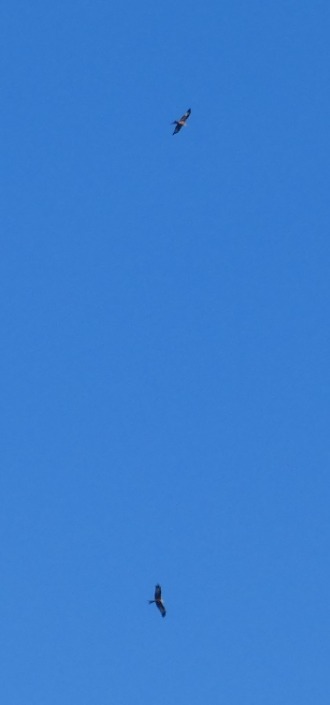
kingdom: Animalia
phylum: Chordata
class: Aves
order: Accipitriformes
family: Accipitridae
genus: Milvus
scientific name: Milvus milvus
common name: Rød glente
